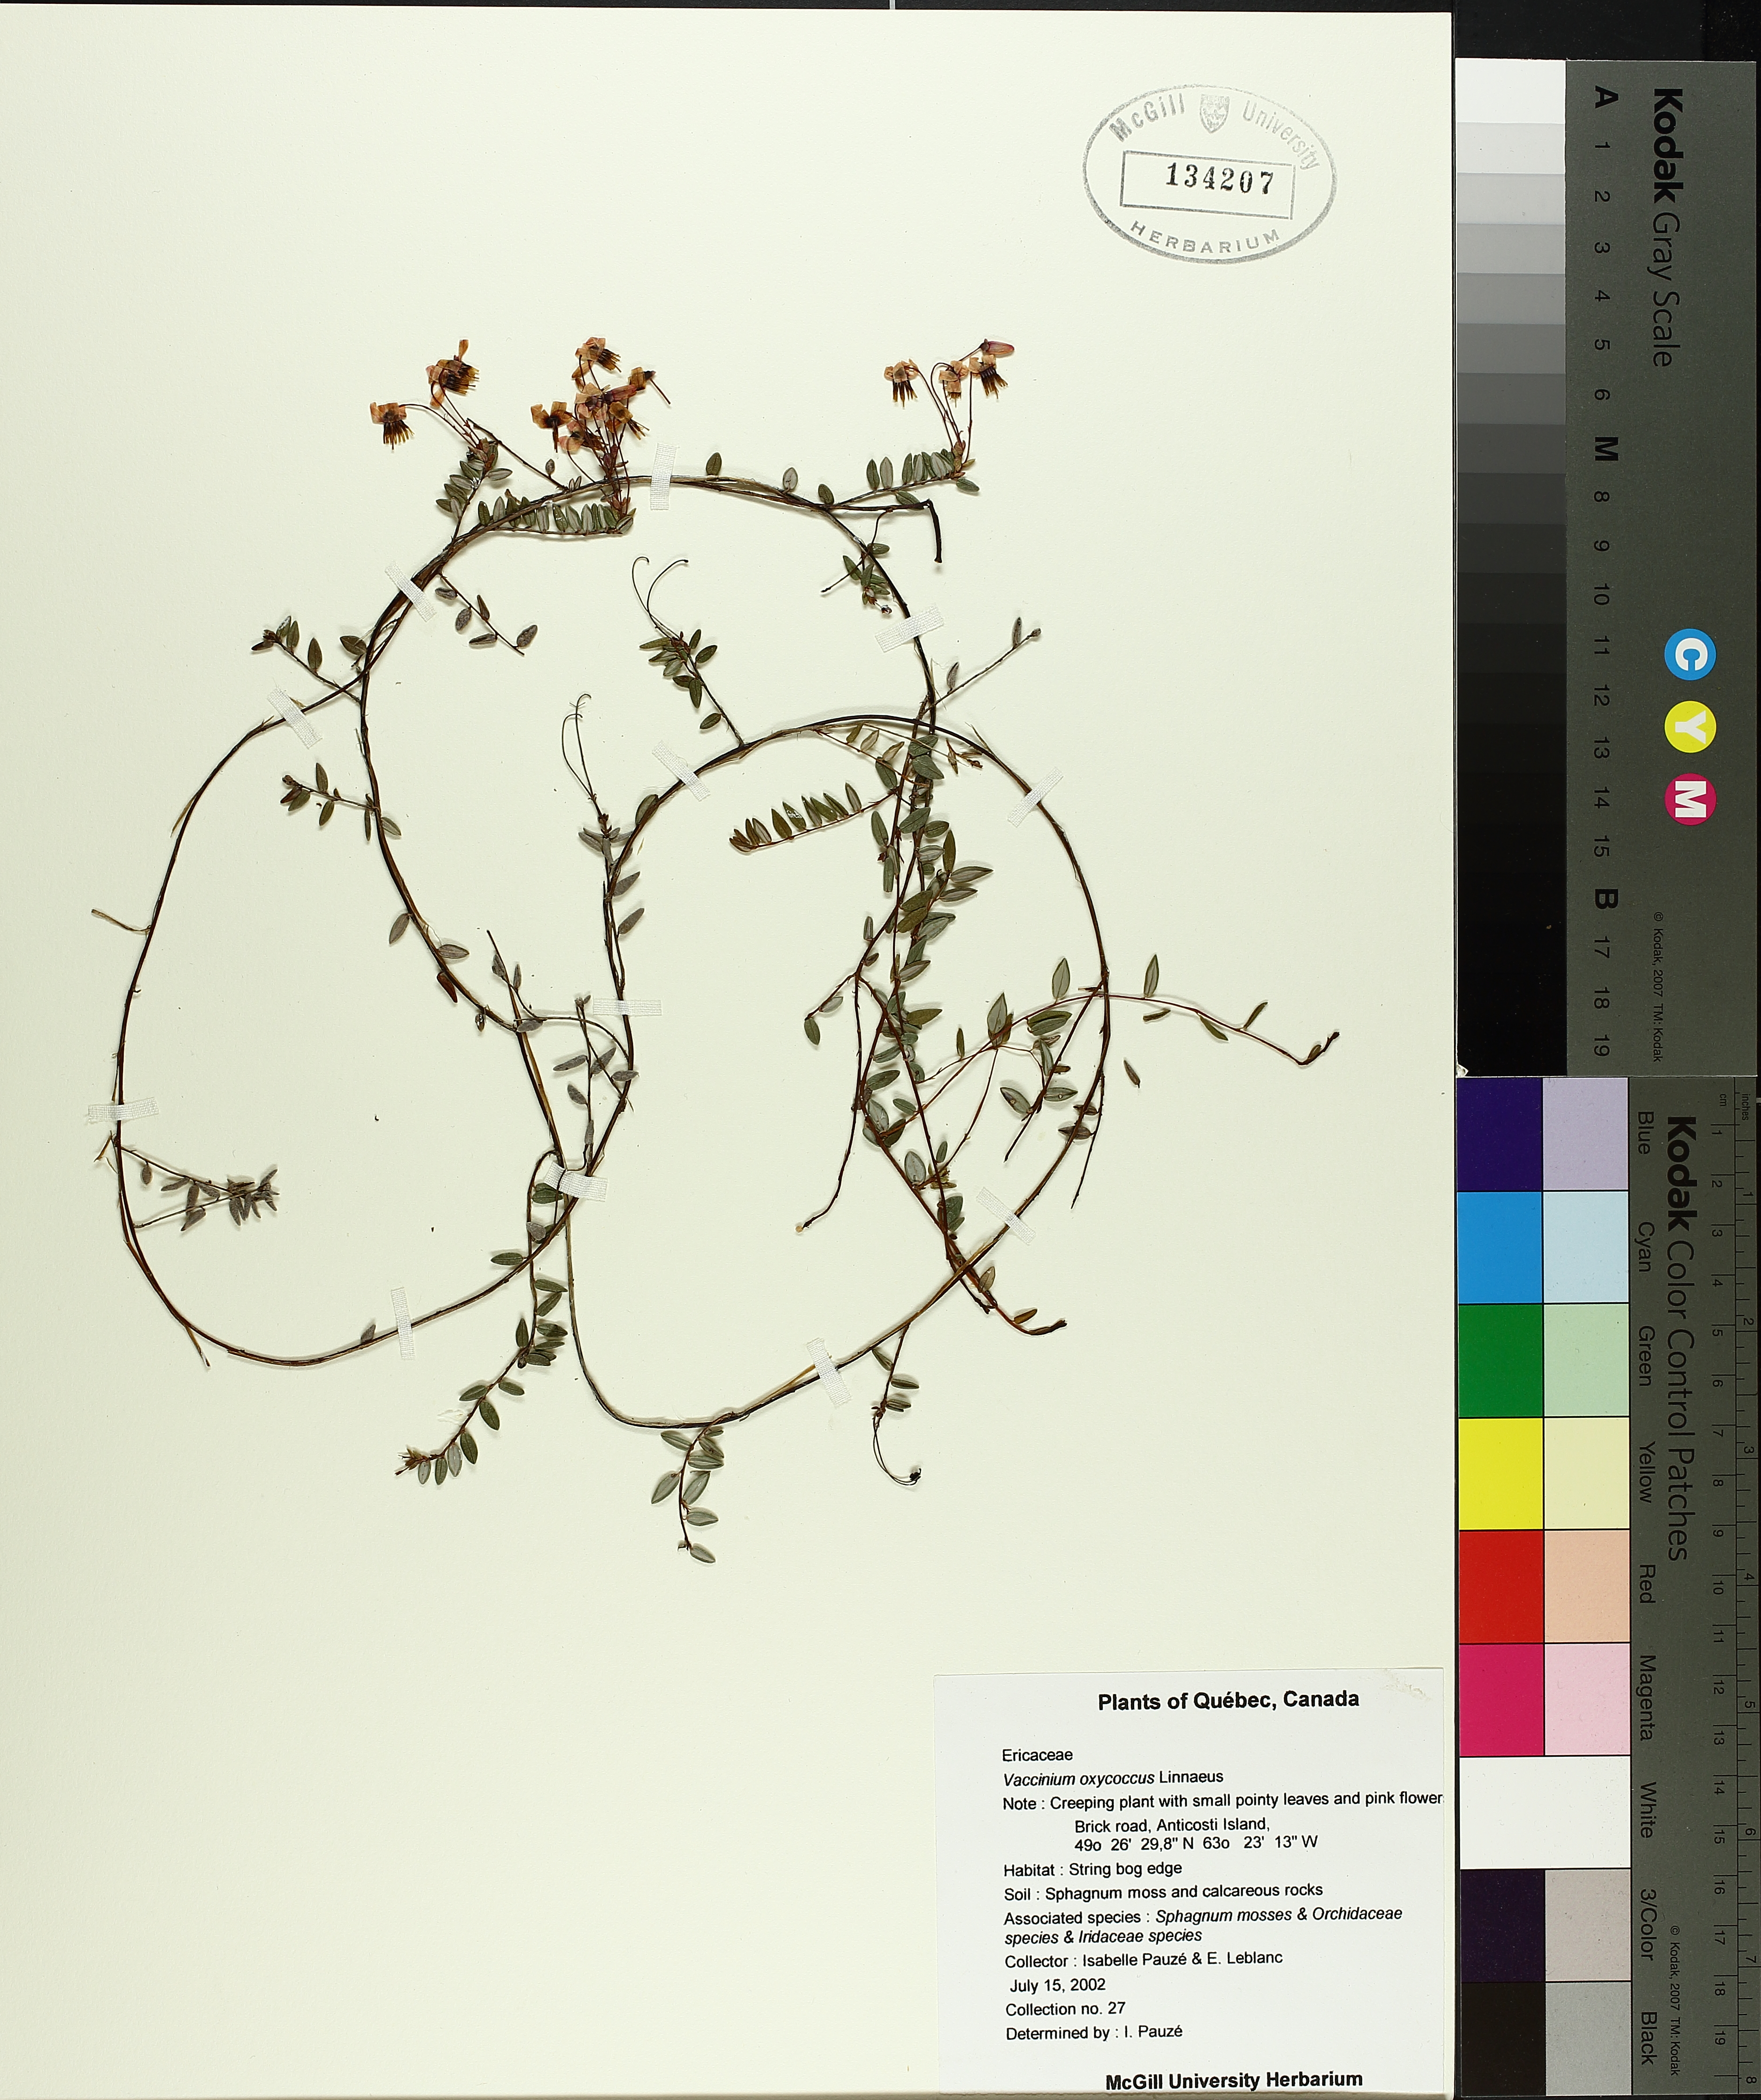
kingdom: Plantae
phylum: Tracheophyta
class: Liliopsida
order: Poales
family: Cyperaceae
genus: Rhynchospora
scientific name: Rhynchospora alba
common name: White beak-sedge
